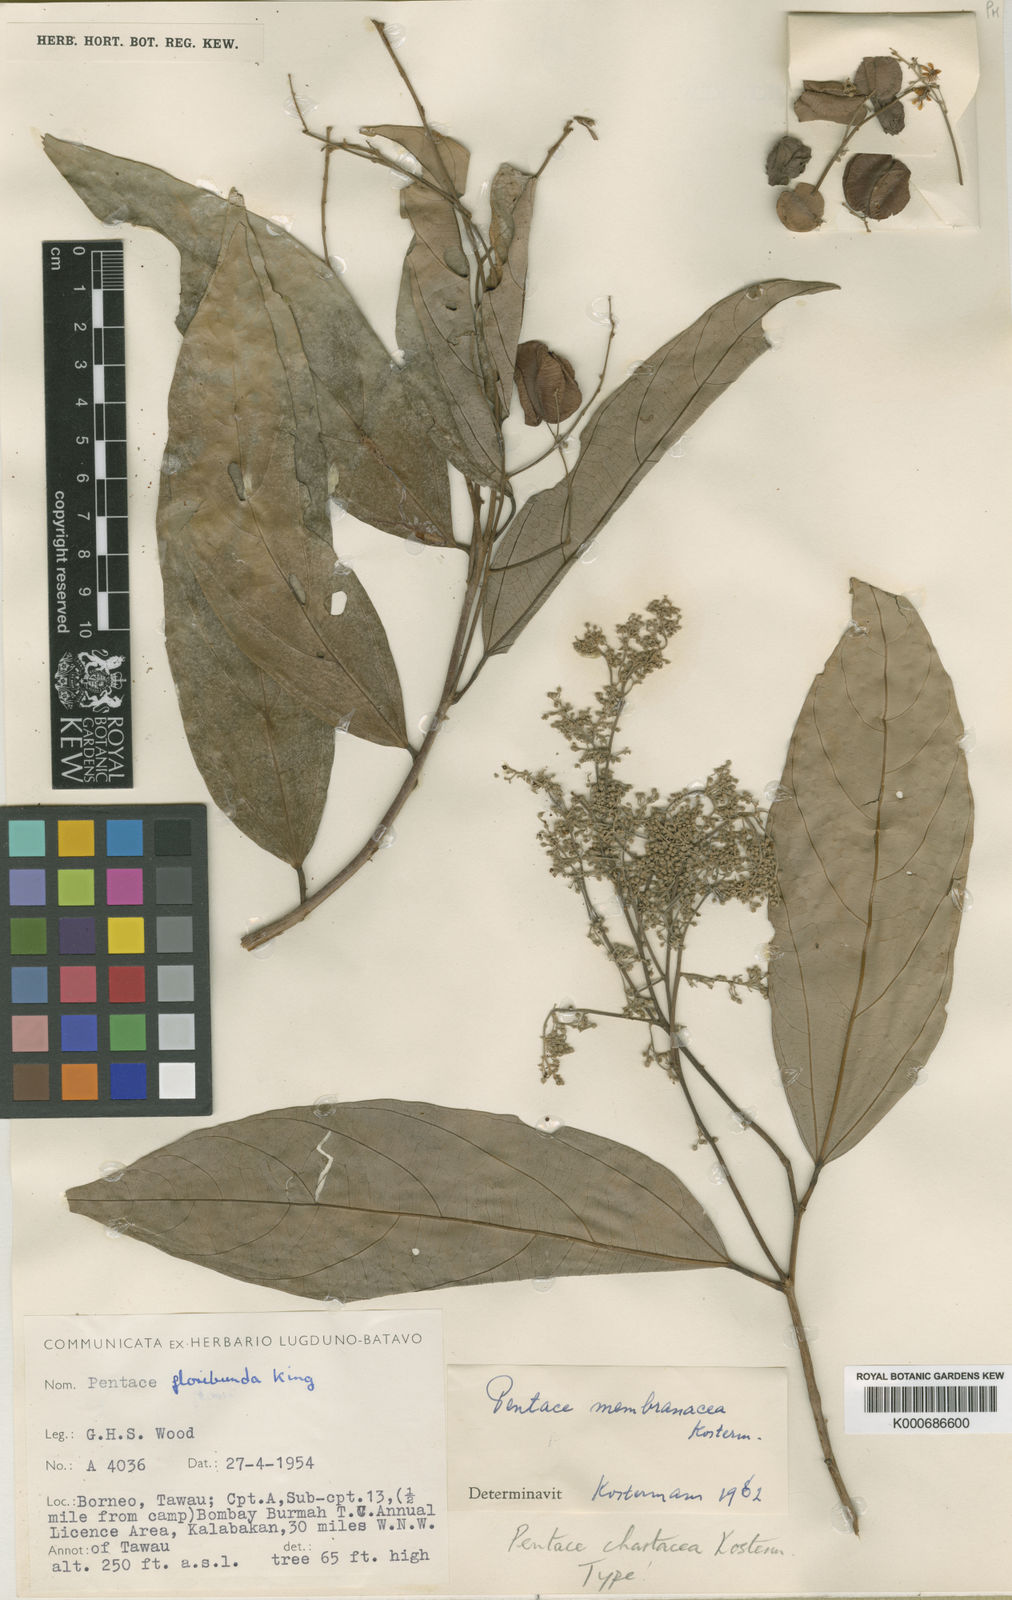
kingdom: Plantae
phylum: Tracheophyta
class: Magnoliopsida
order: Malvales
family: Malvaceae
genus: Pentace
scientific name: Pentace chartacea
